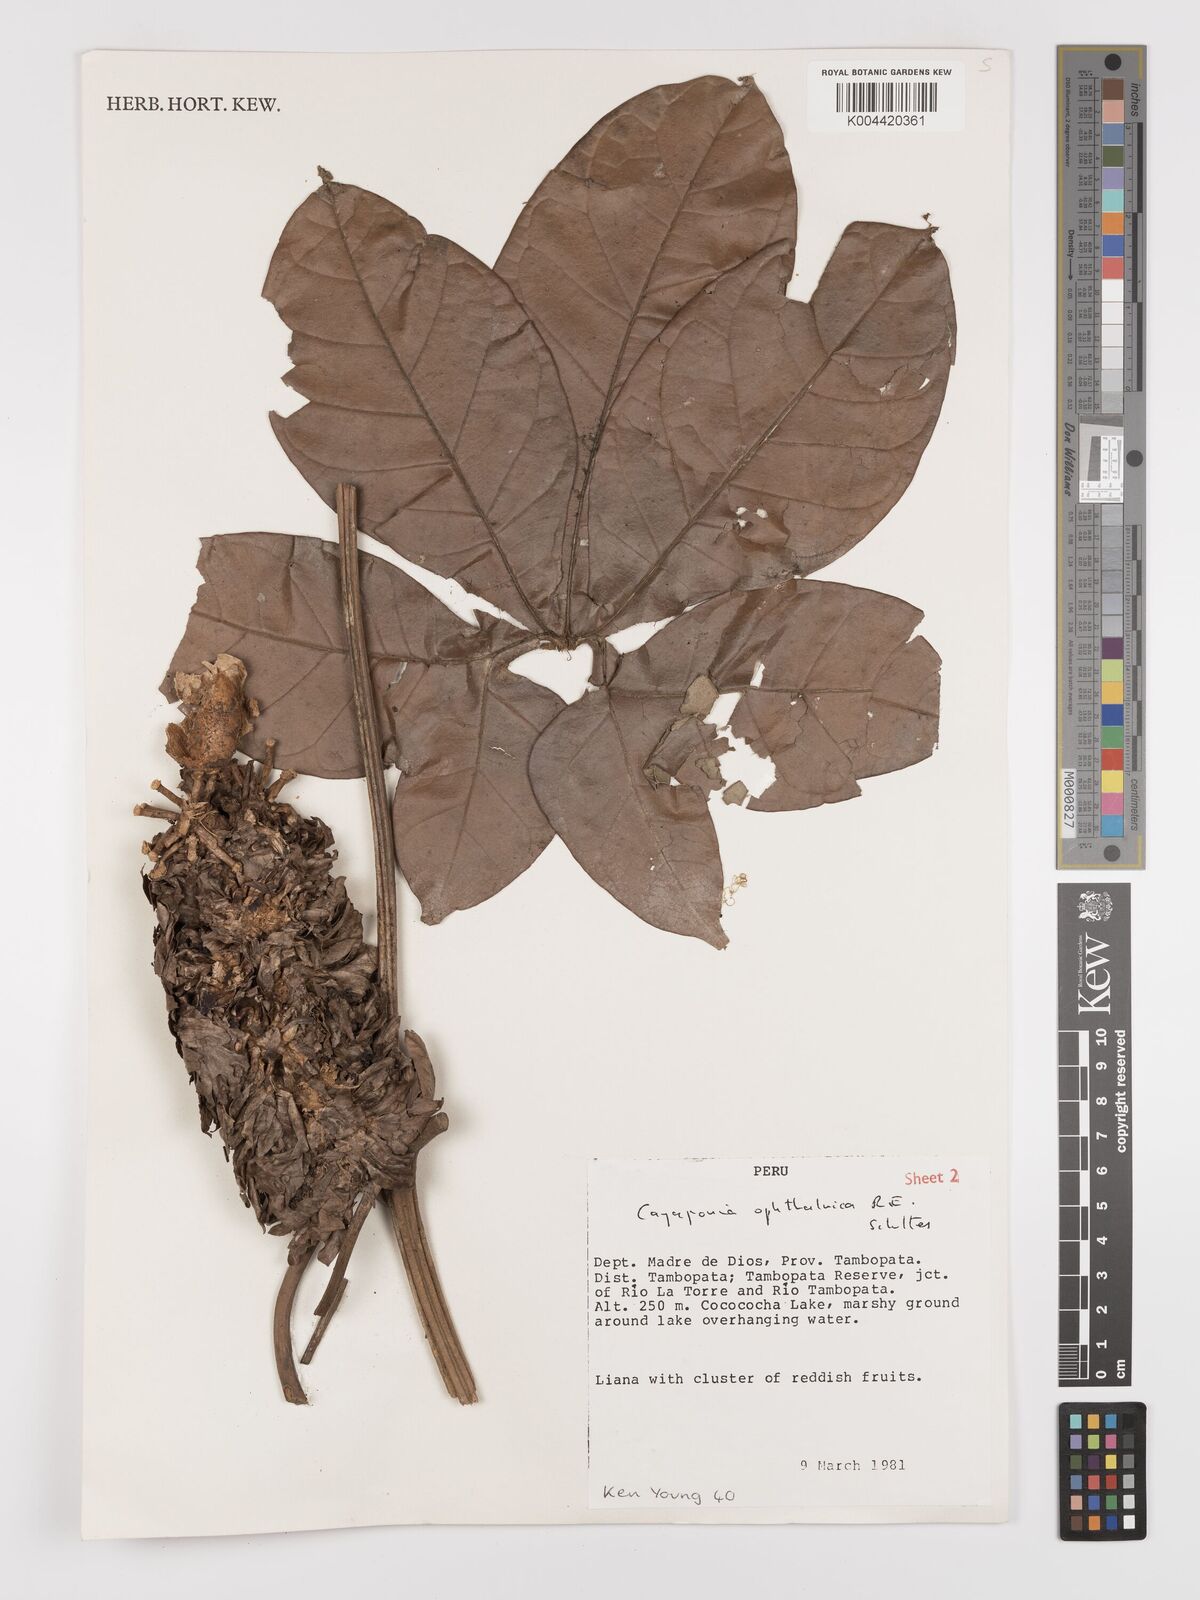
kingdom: Plantae
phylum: Tracheophyta
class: Magnoliopsida
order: Cucurbitales
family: Cucurbitaceae
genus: Cayaponia
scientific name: Cayaponia ophthalmica
